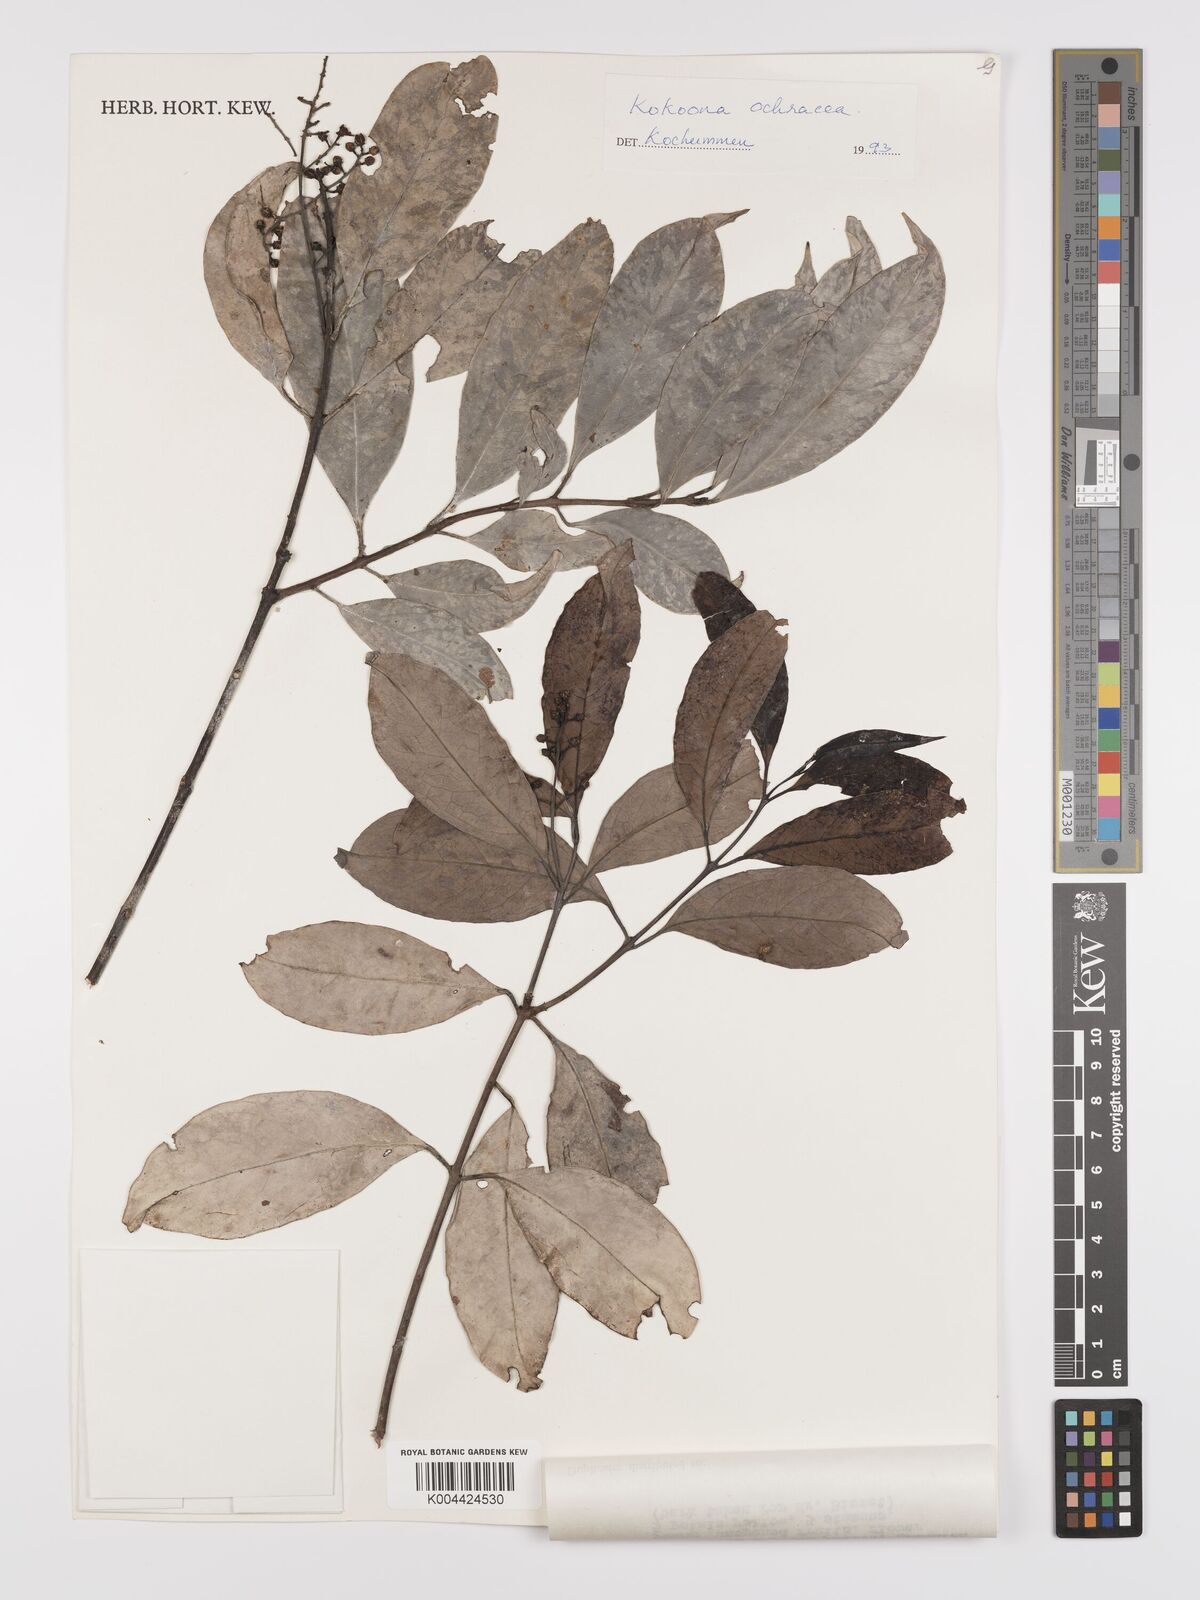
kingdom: Plantae
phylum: Tracheophyta
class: Magnoliopsida
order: Celastrales
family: Celastraceae
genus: Kokoona
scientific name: Kokoona ochracea
